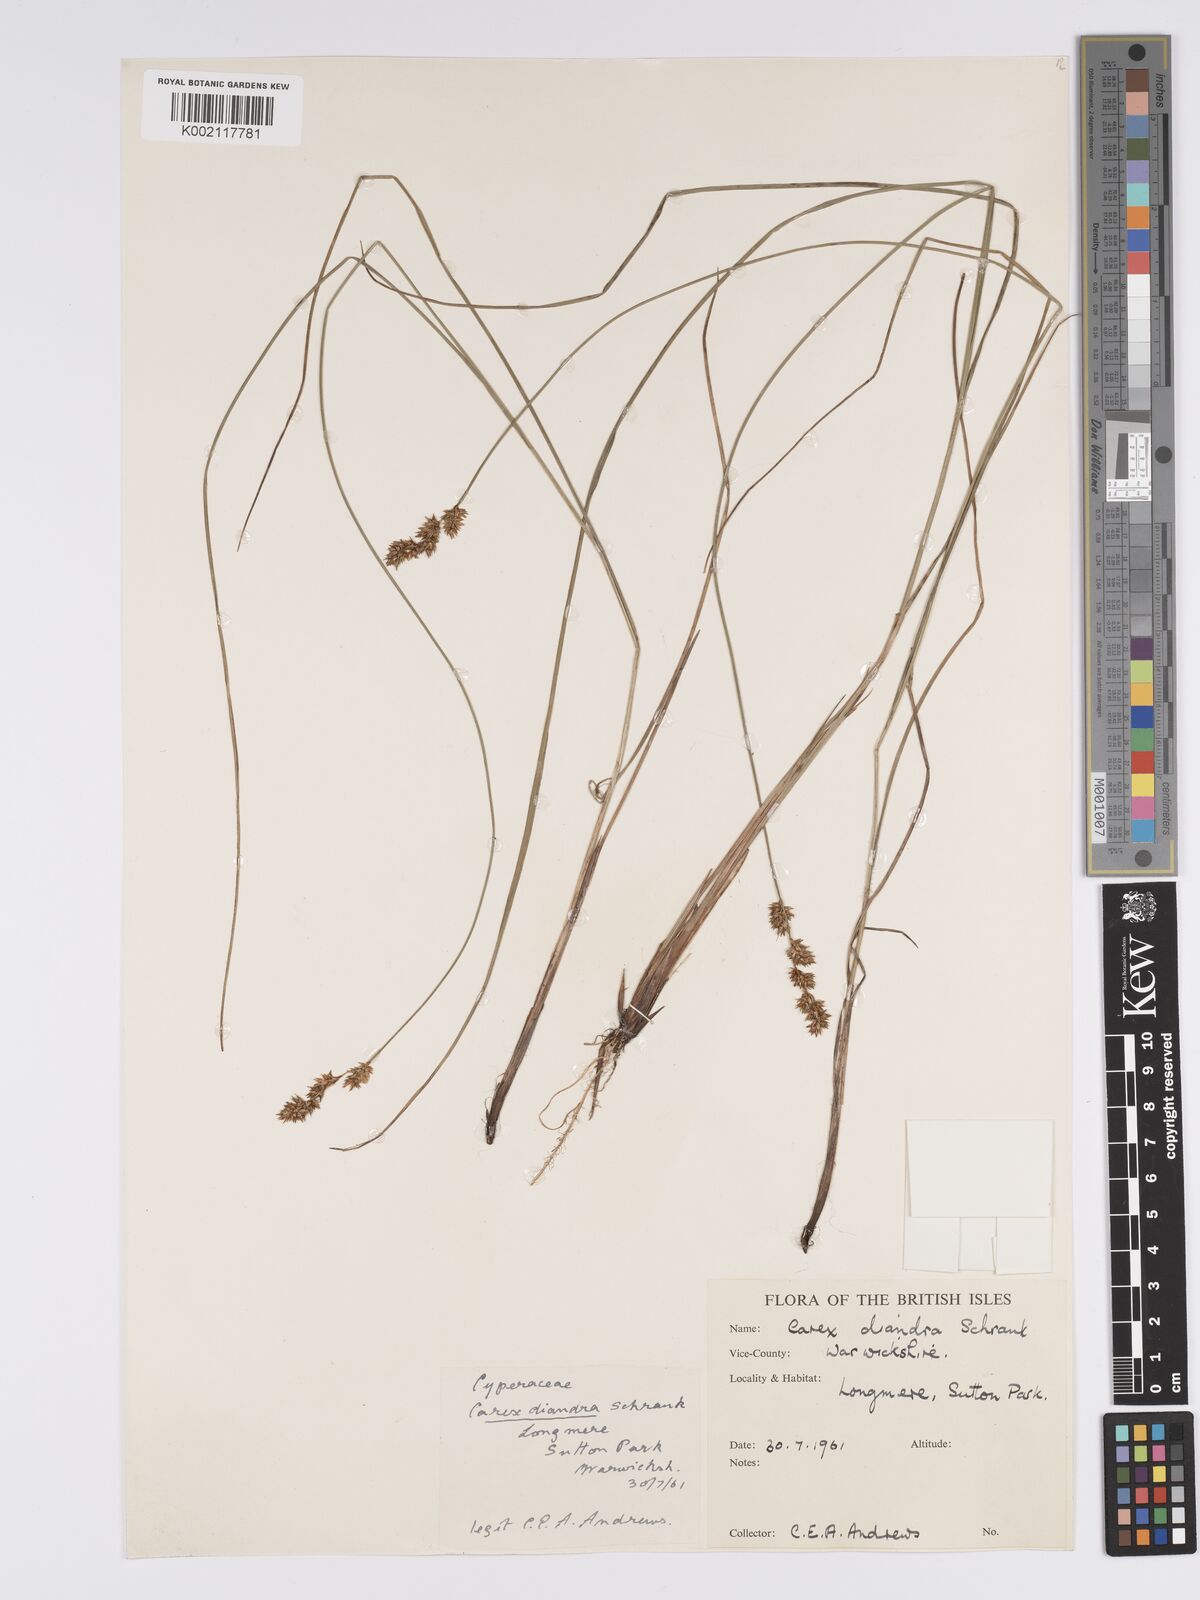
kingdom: Plantae
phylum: Tracheophyta
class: Liliopsida
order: Poales
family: Cyperaceae
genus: Carex
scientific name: Carex diandra
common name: Lesser tussock-sedge
